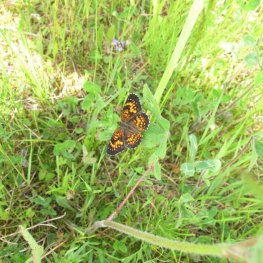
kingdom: Animalia
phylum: Arthropoda
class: Insecta
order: Lepidoptera
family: Nymphalidae
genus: Chlosyne
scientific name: Chlosyne harrisii
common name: Harris's Checkerspot
